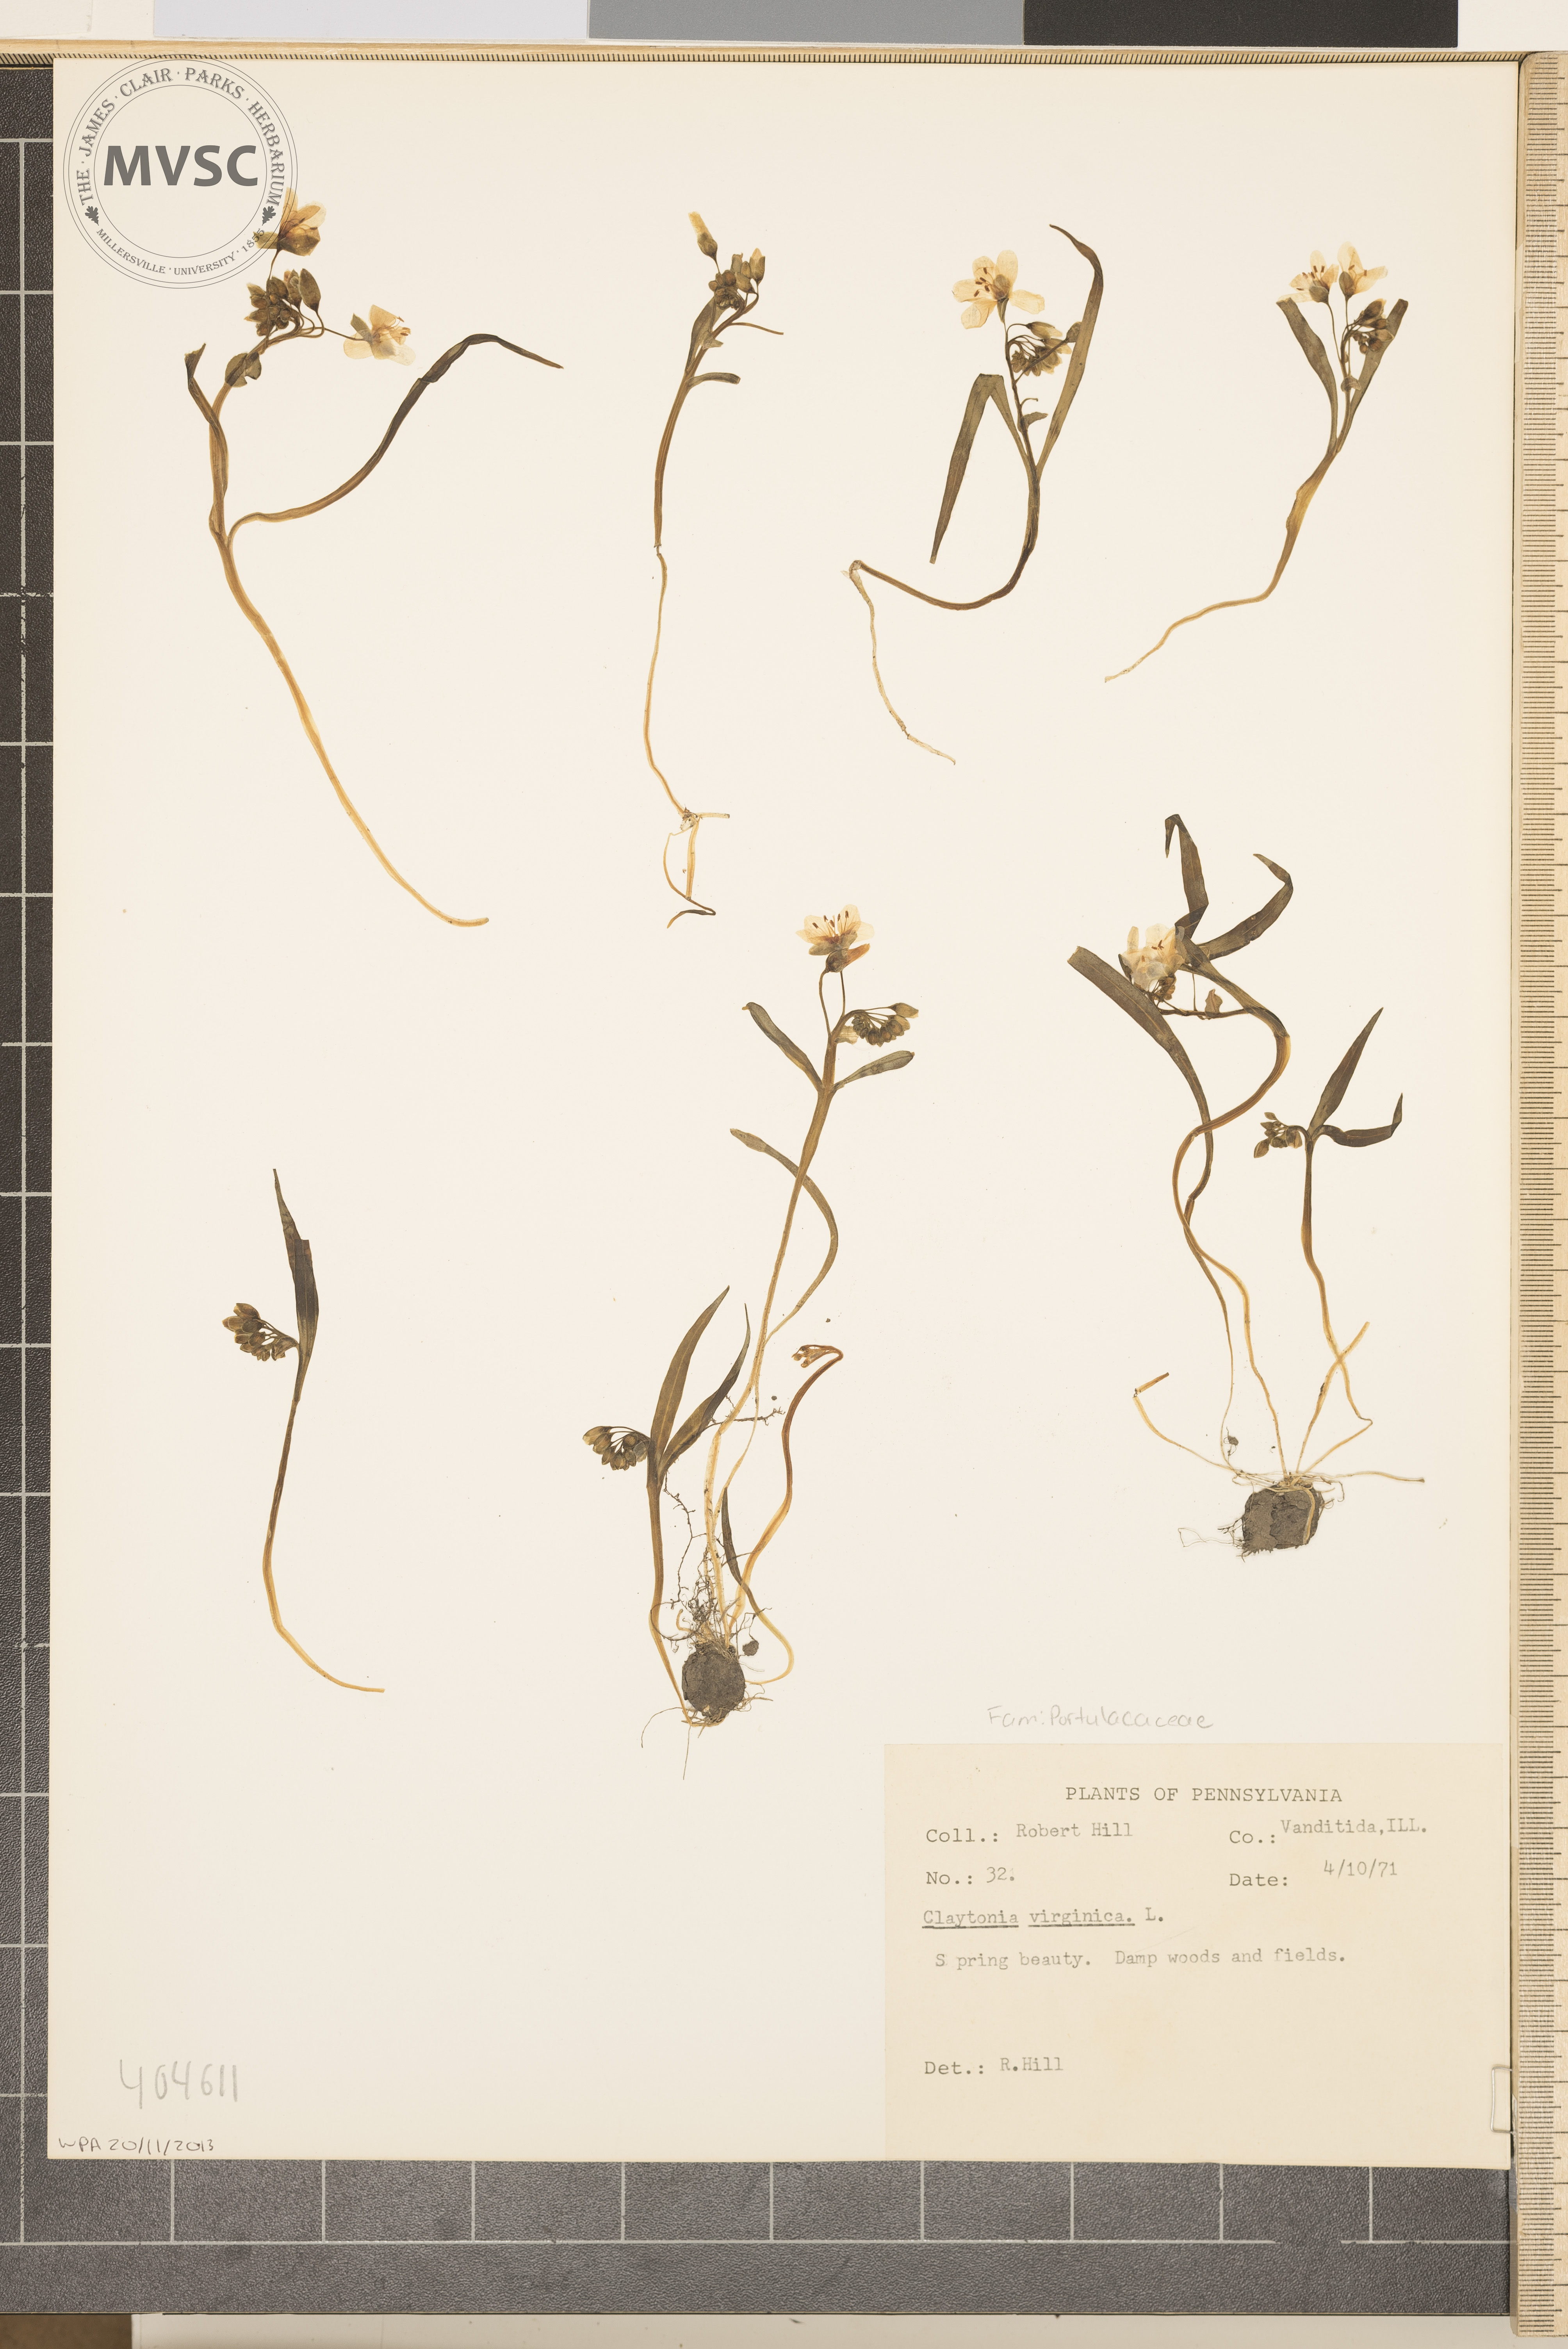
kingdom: Plantae
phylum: Tracheophyta
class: Magnoliopsida
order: Caryophyllales
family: Montiaceae
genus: Claytonia
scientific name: Claytonia virginica
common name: Virginia springbeauty
